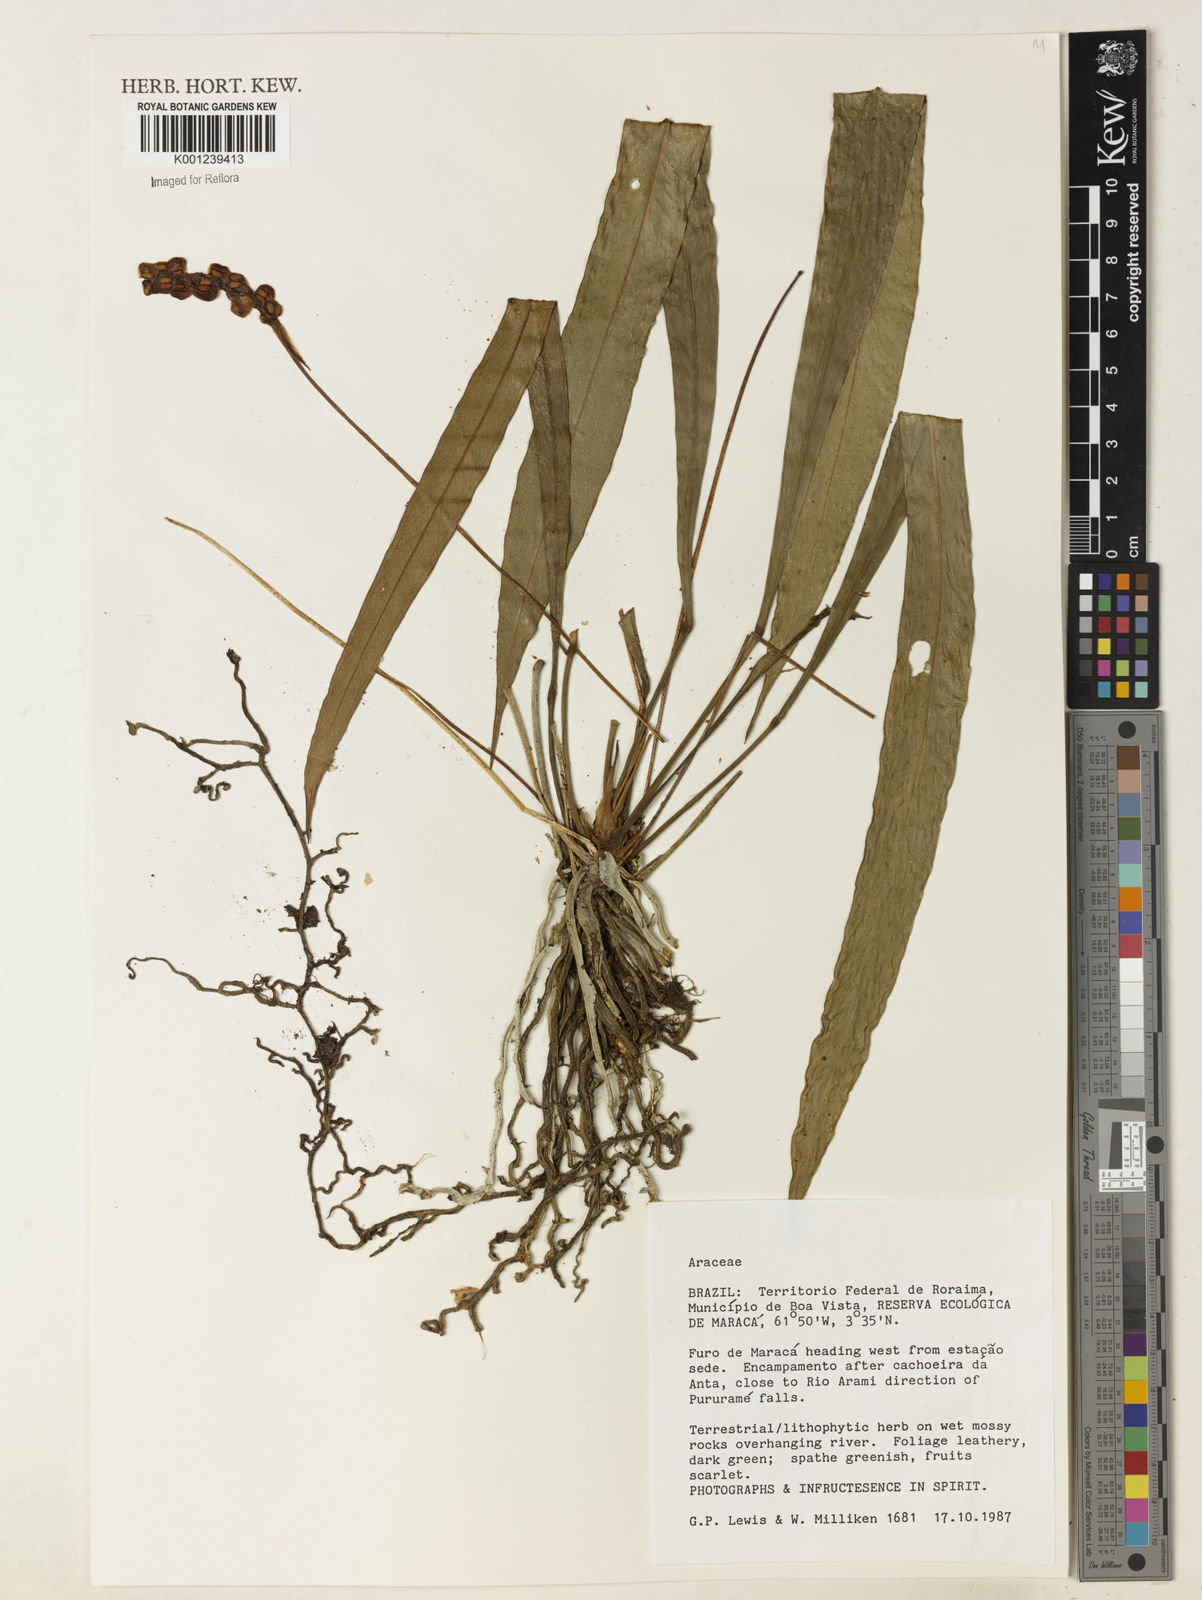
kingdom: Plantae
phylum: Tracheophyta
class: Liliopsida
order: Alismatales
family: Araceae
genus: Anthurium
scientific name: Anthurium gracile
